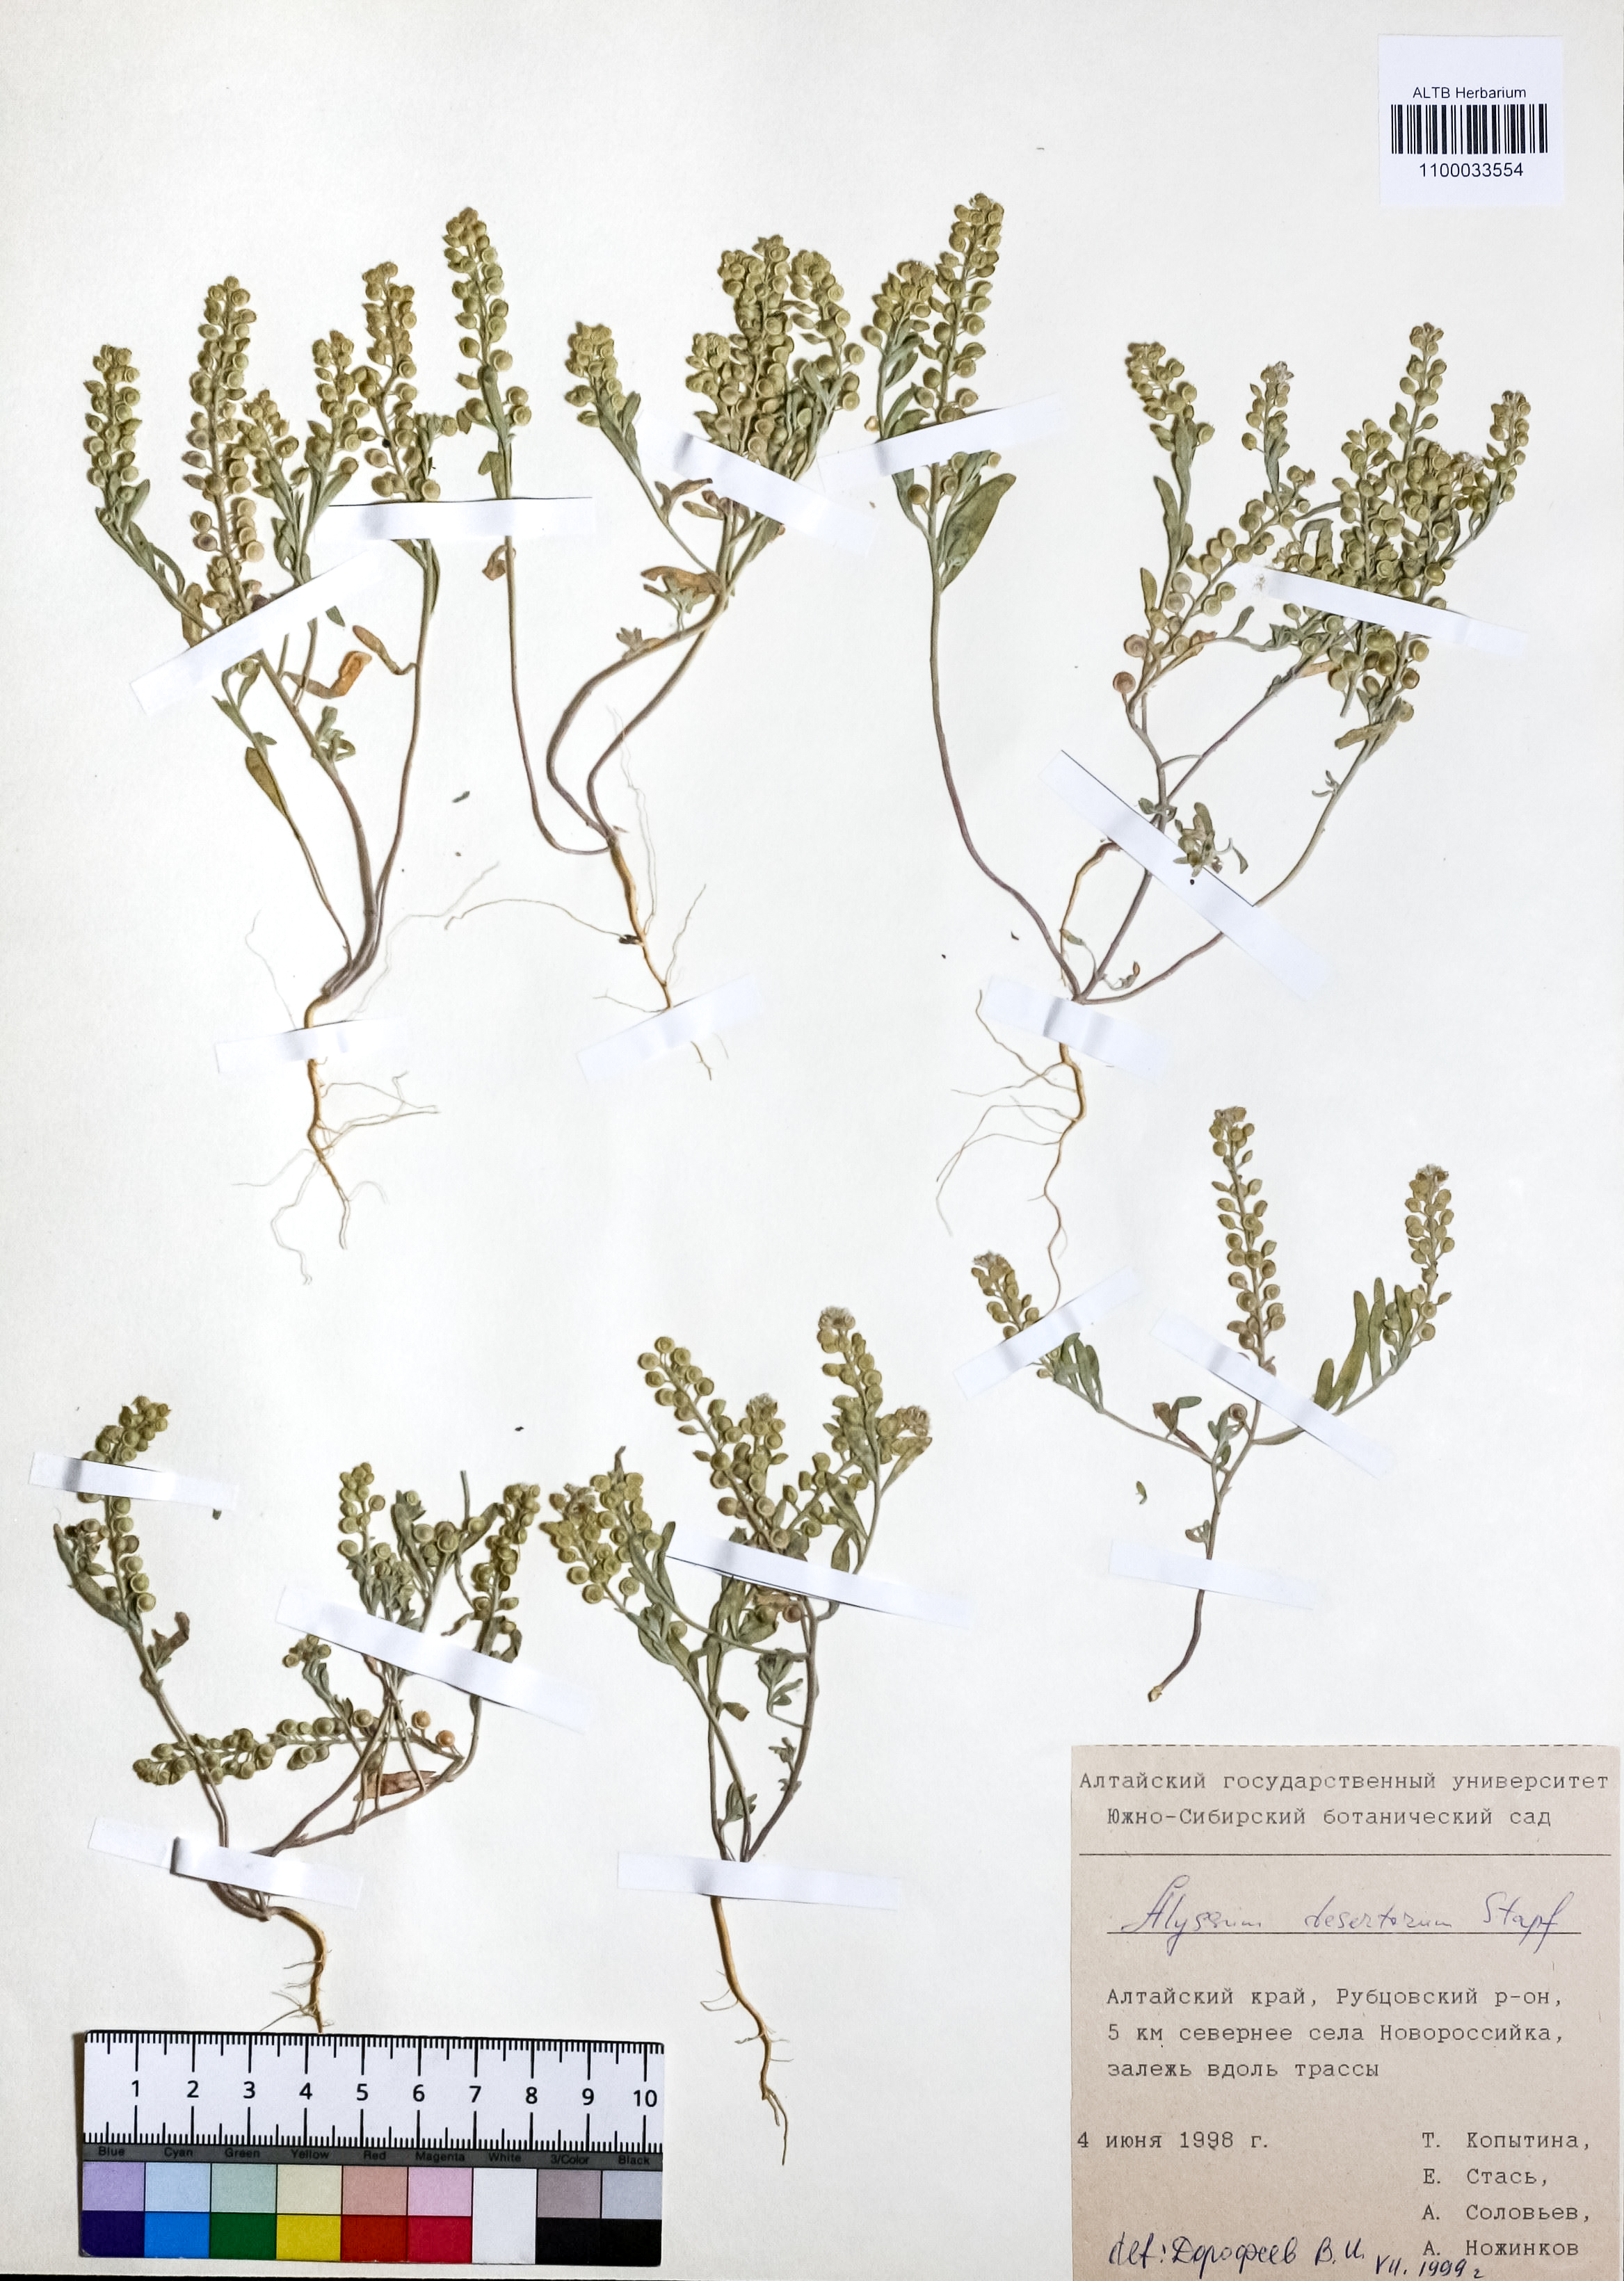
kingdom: Plantae
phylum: Tracheophyta
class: Magnoliopsida
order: Brassicales
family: Brassicaceae
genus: Alyssum
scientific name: Alyssum turkestanicum
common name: Desert alyssum
